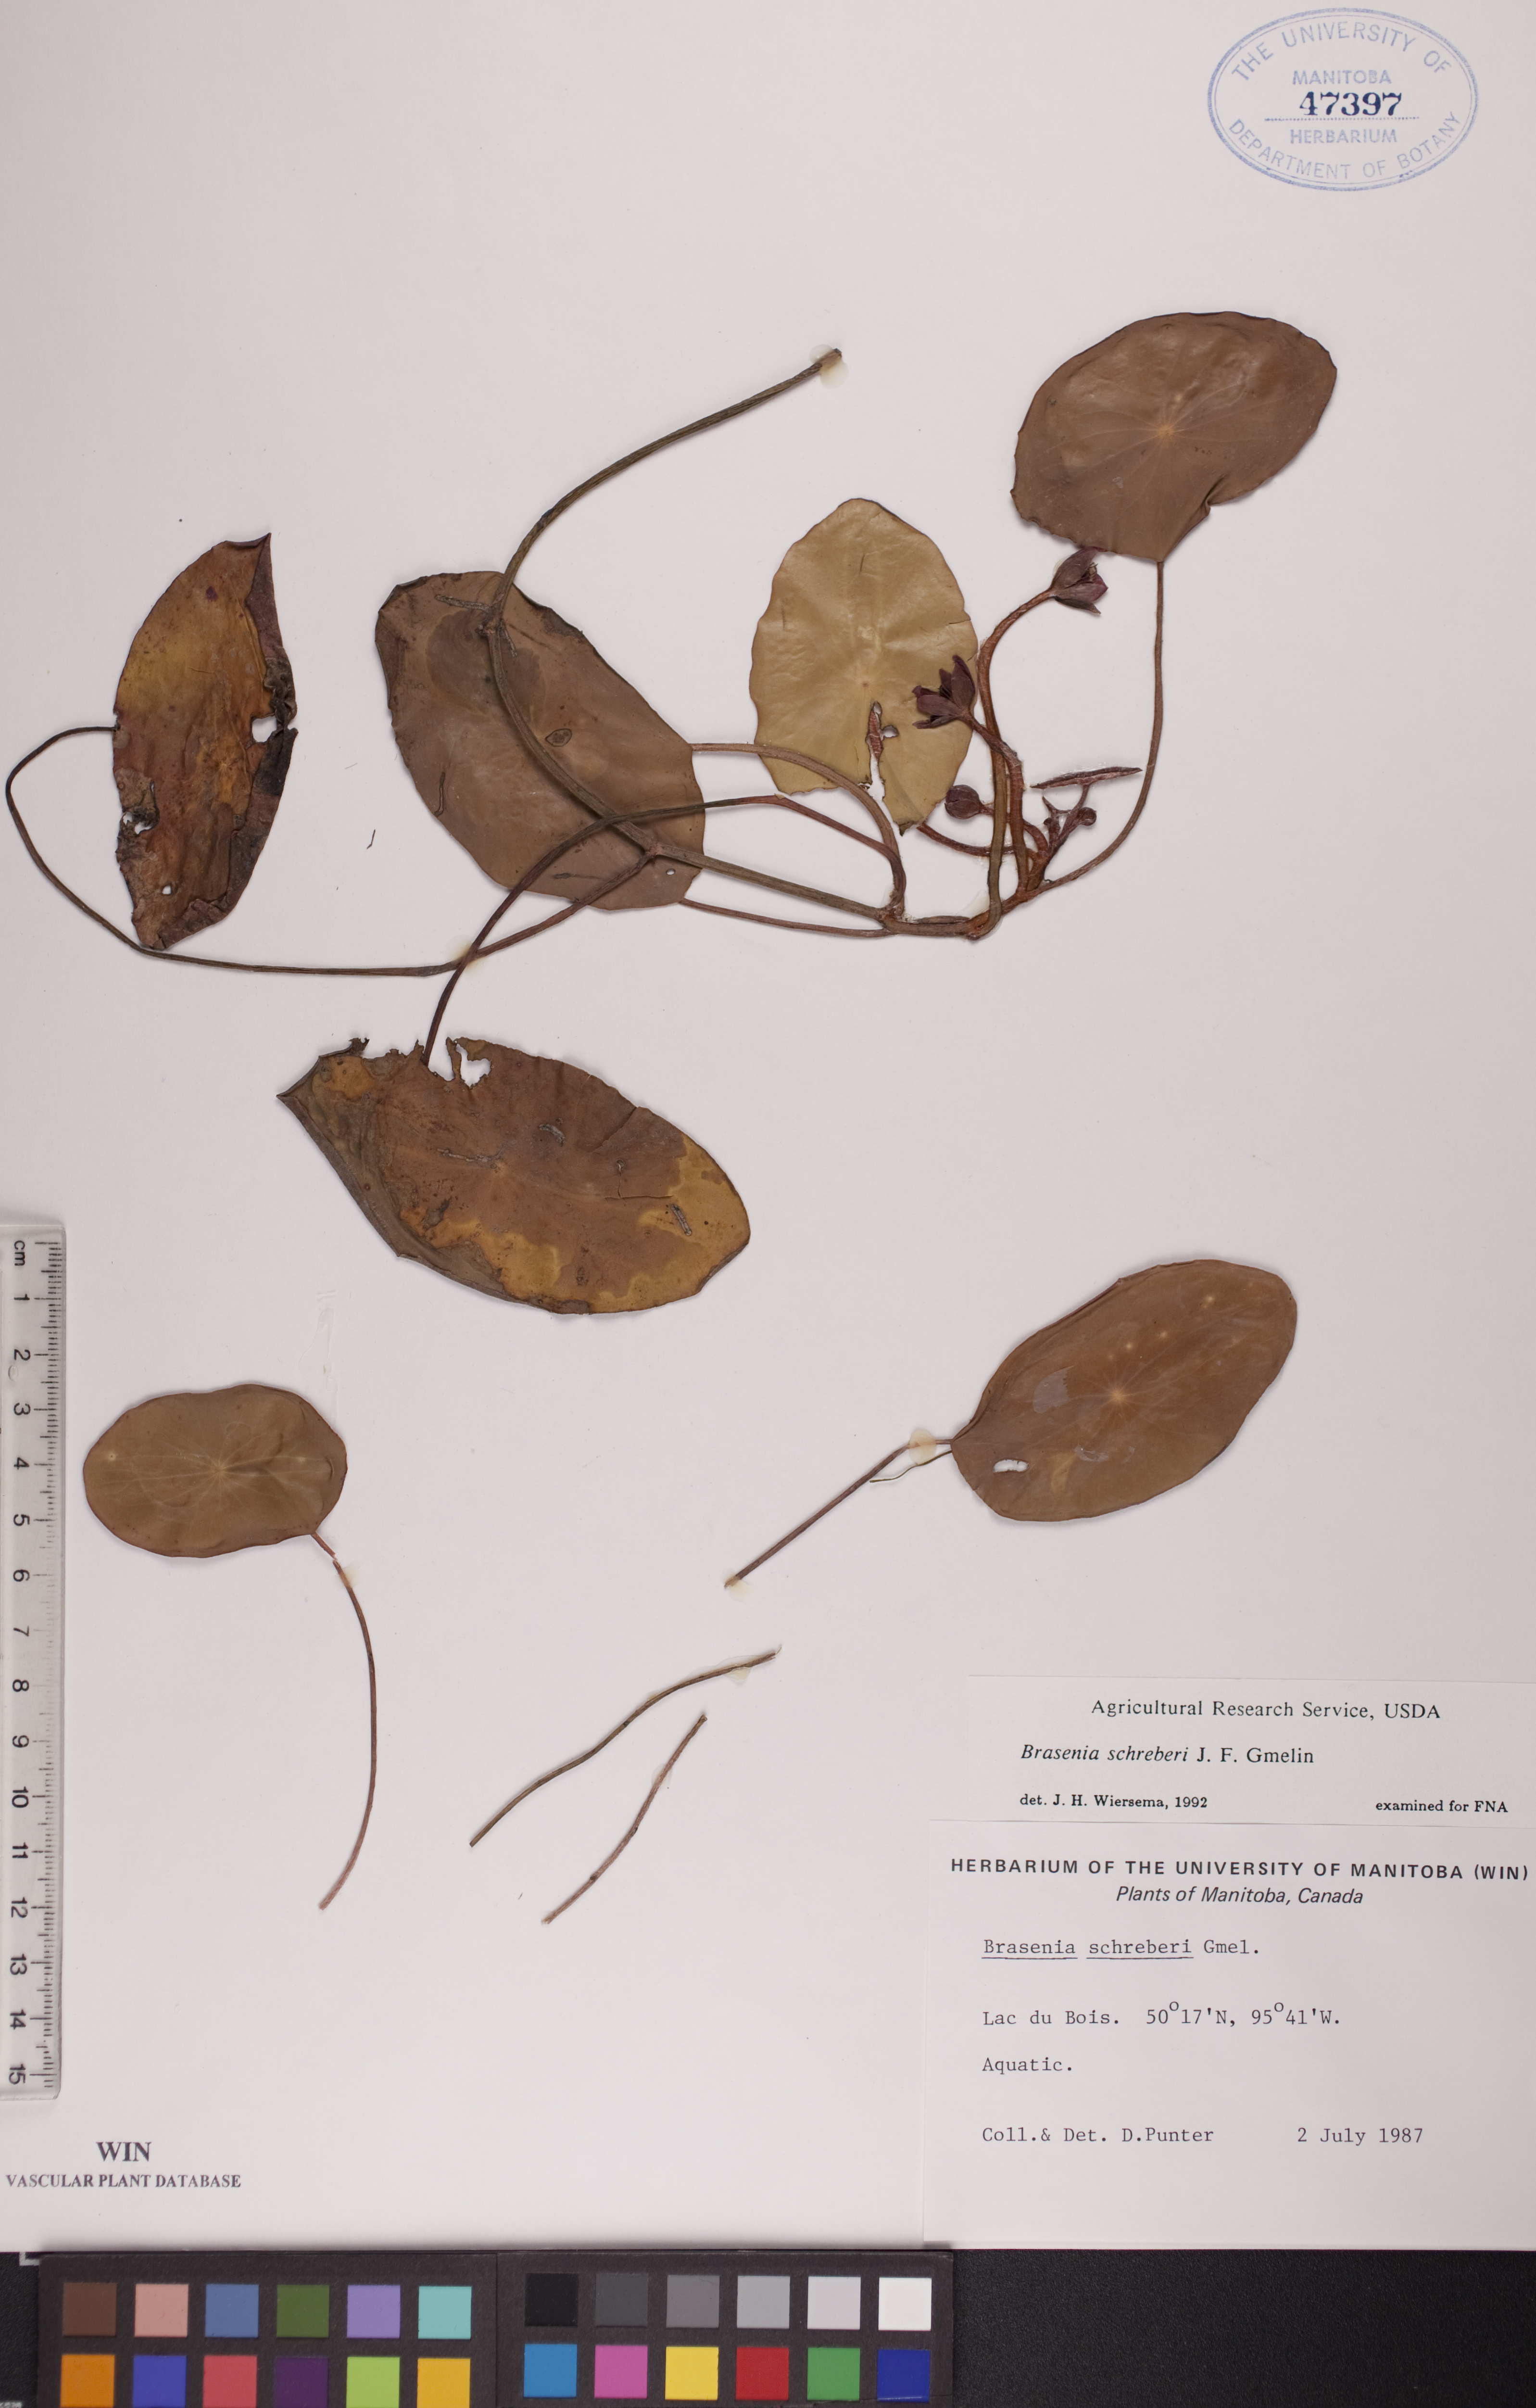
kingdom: Plantae
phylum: Tracheophyta
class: Magnoliopsida
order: Nymphaeales
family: Cabombaceae
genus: Brasenia
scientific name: Brasenia schreberi
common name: Water-shield
